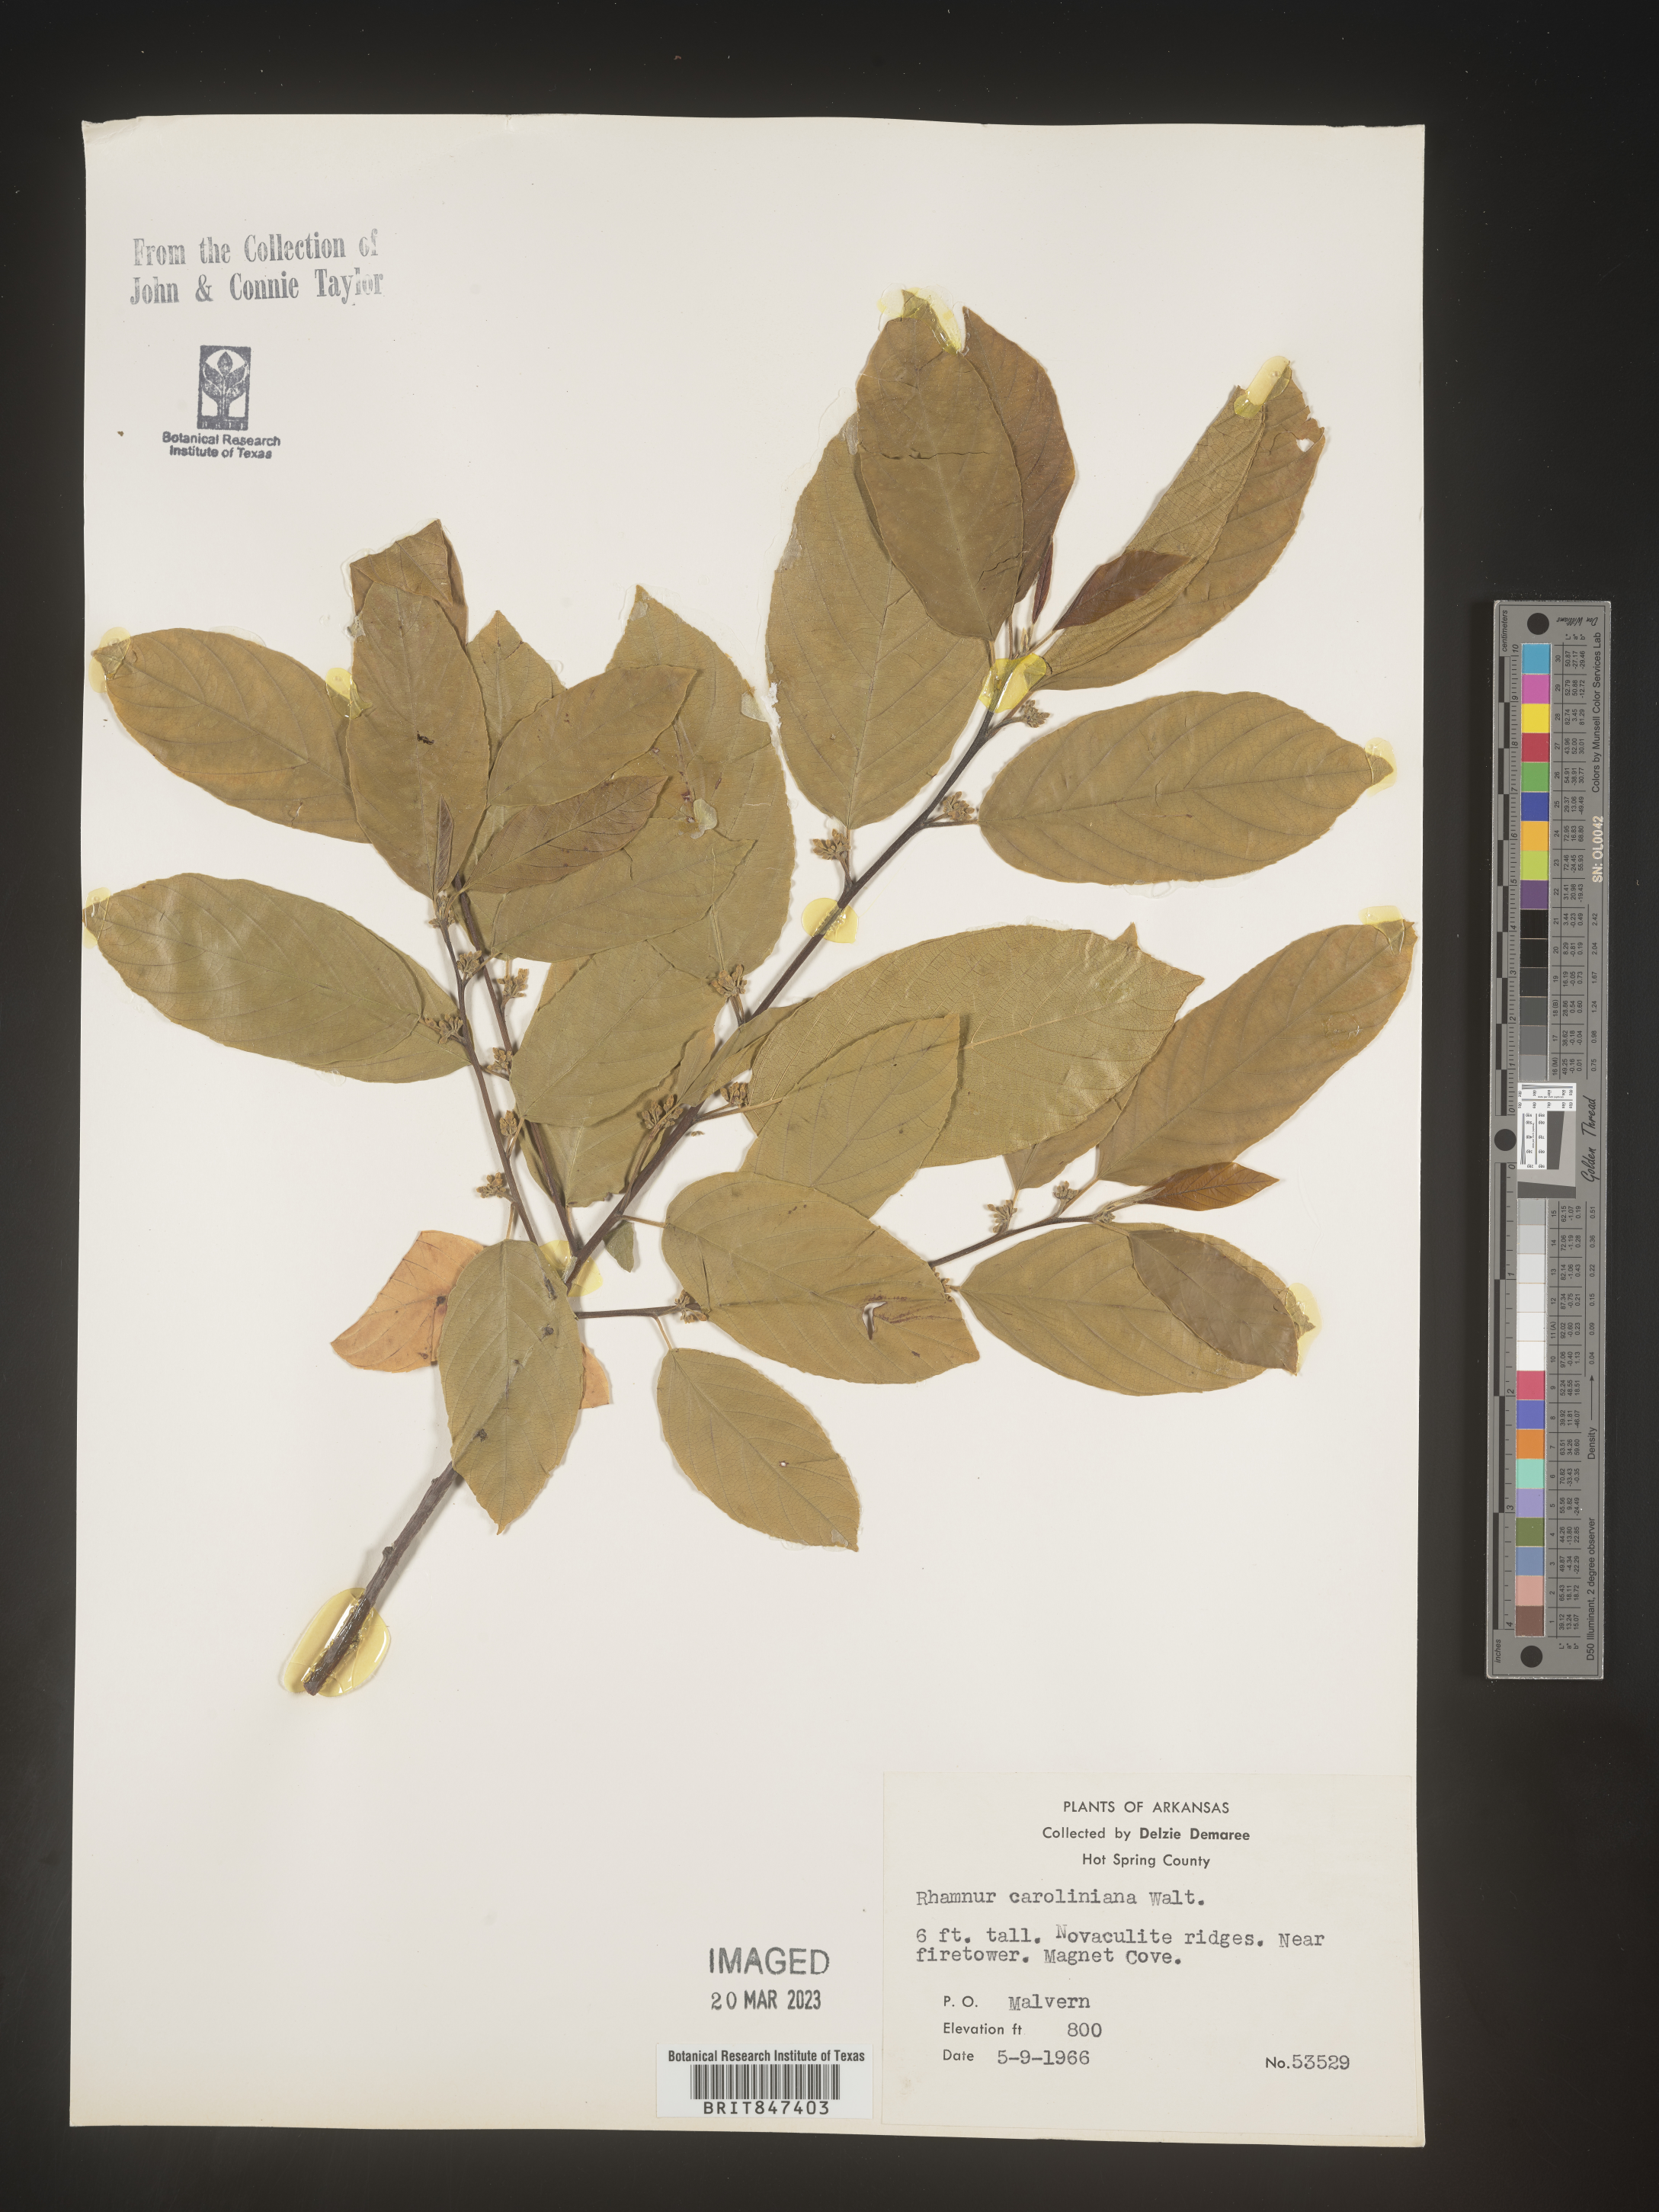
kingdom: Plantae
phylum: Tracheophyta
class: Magnoliopsida
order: Rosales
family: Rhamnaceae
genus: Frangula
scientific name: Frangula caroliniana
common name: Carolina buckthorn
